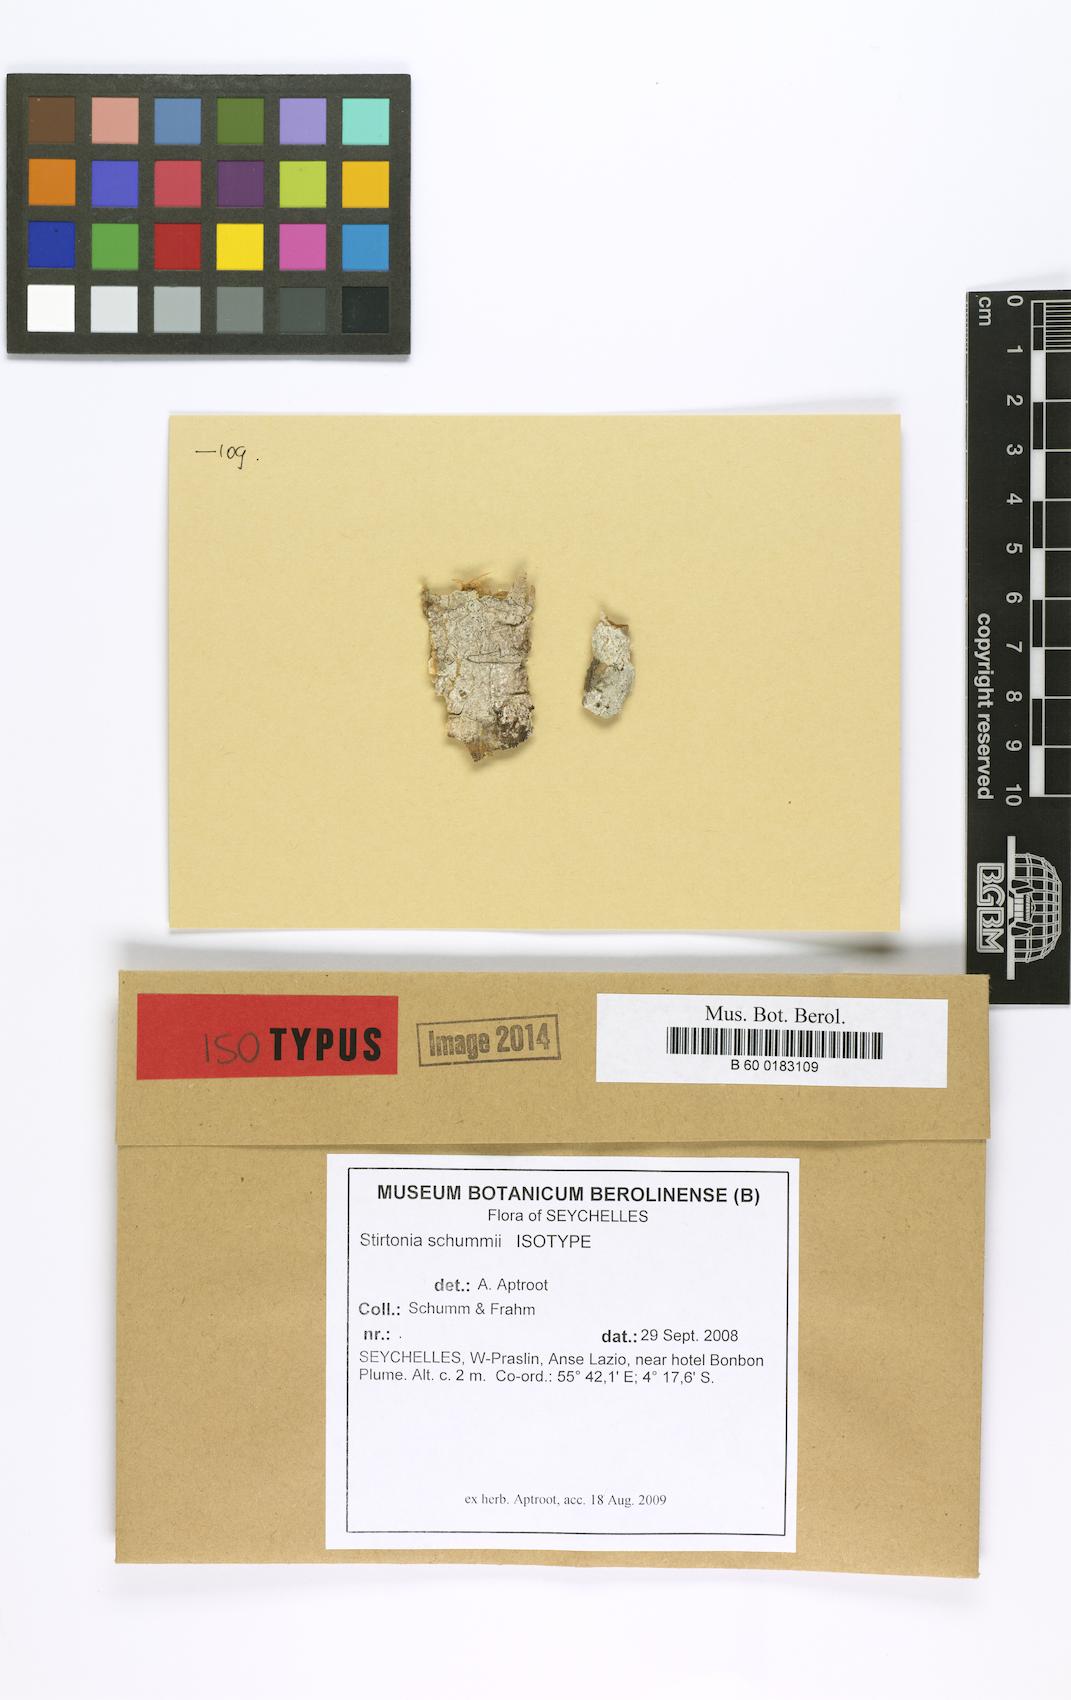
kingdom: Fungi
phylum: Ascomycota
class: Arthoniomycetes
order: Arthoniales
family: Arthoniaceae
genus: Stirtonia
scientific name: Stirtonia schummii
